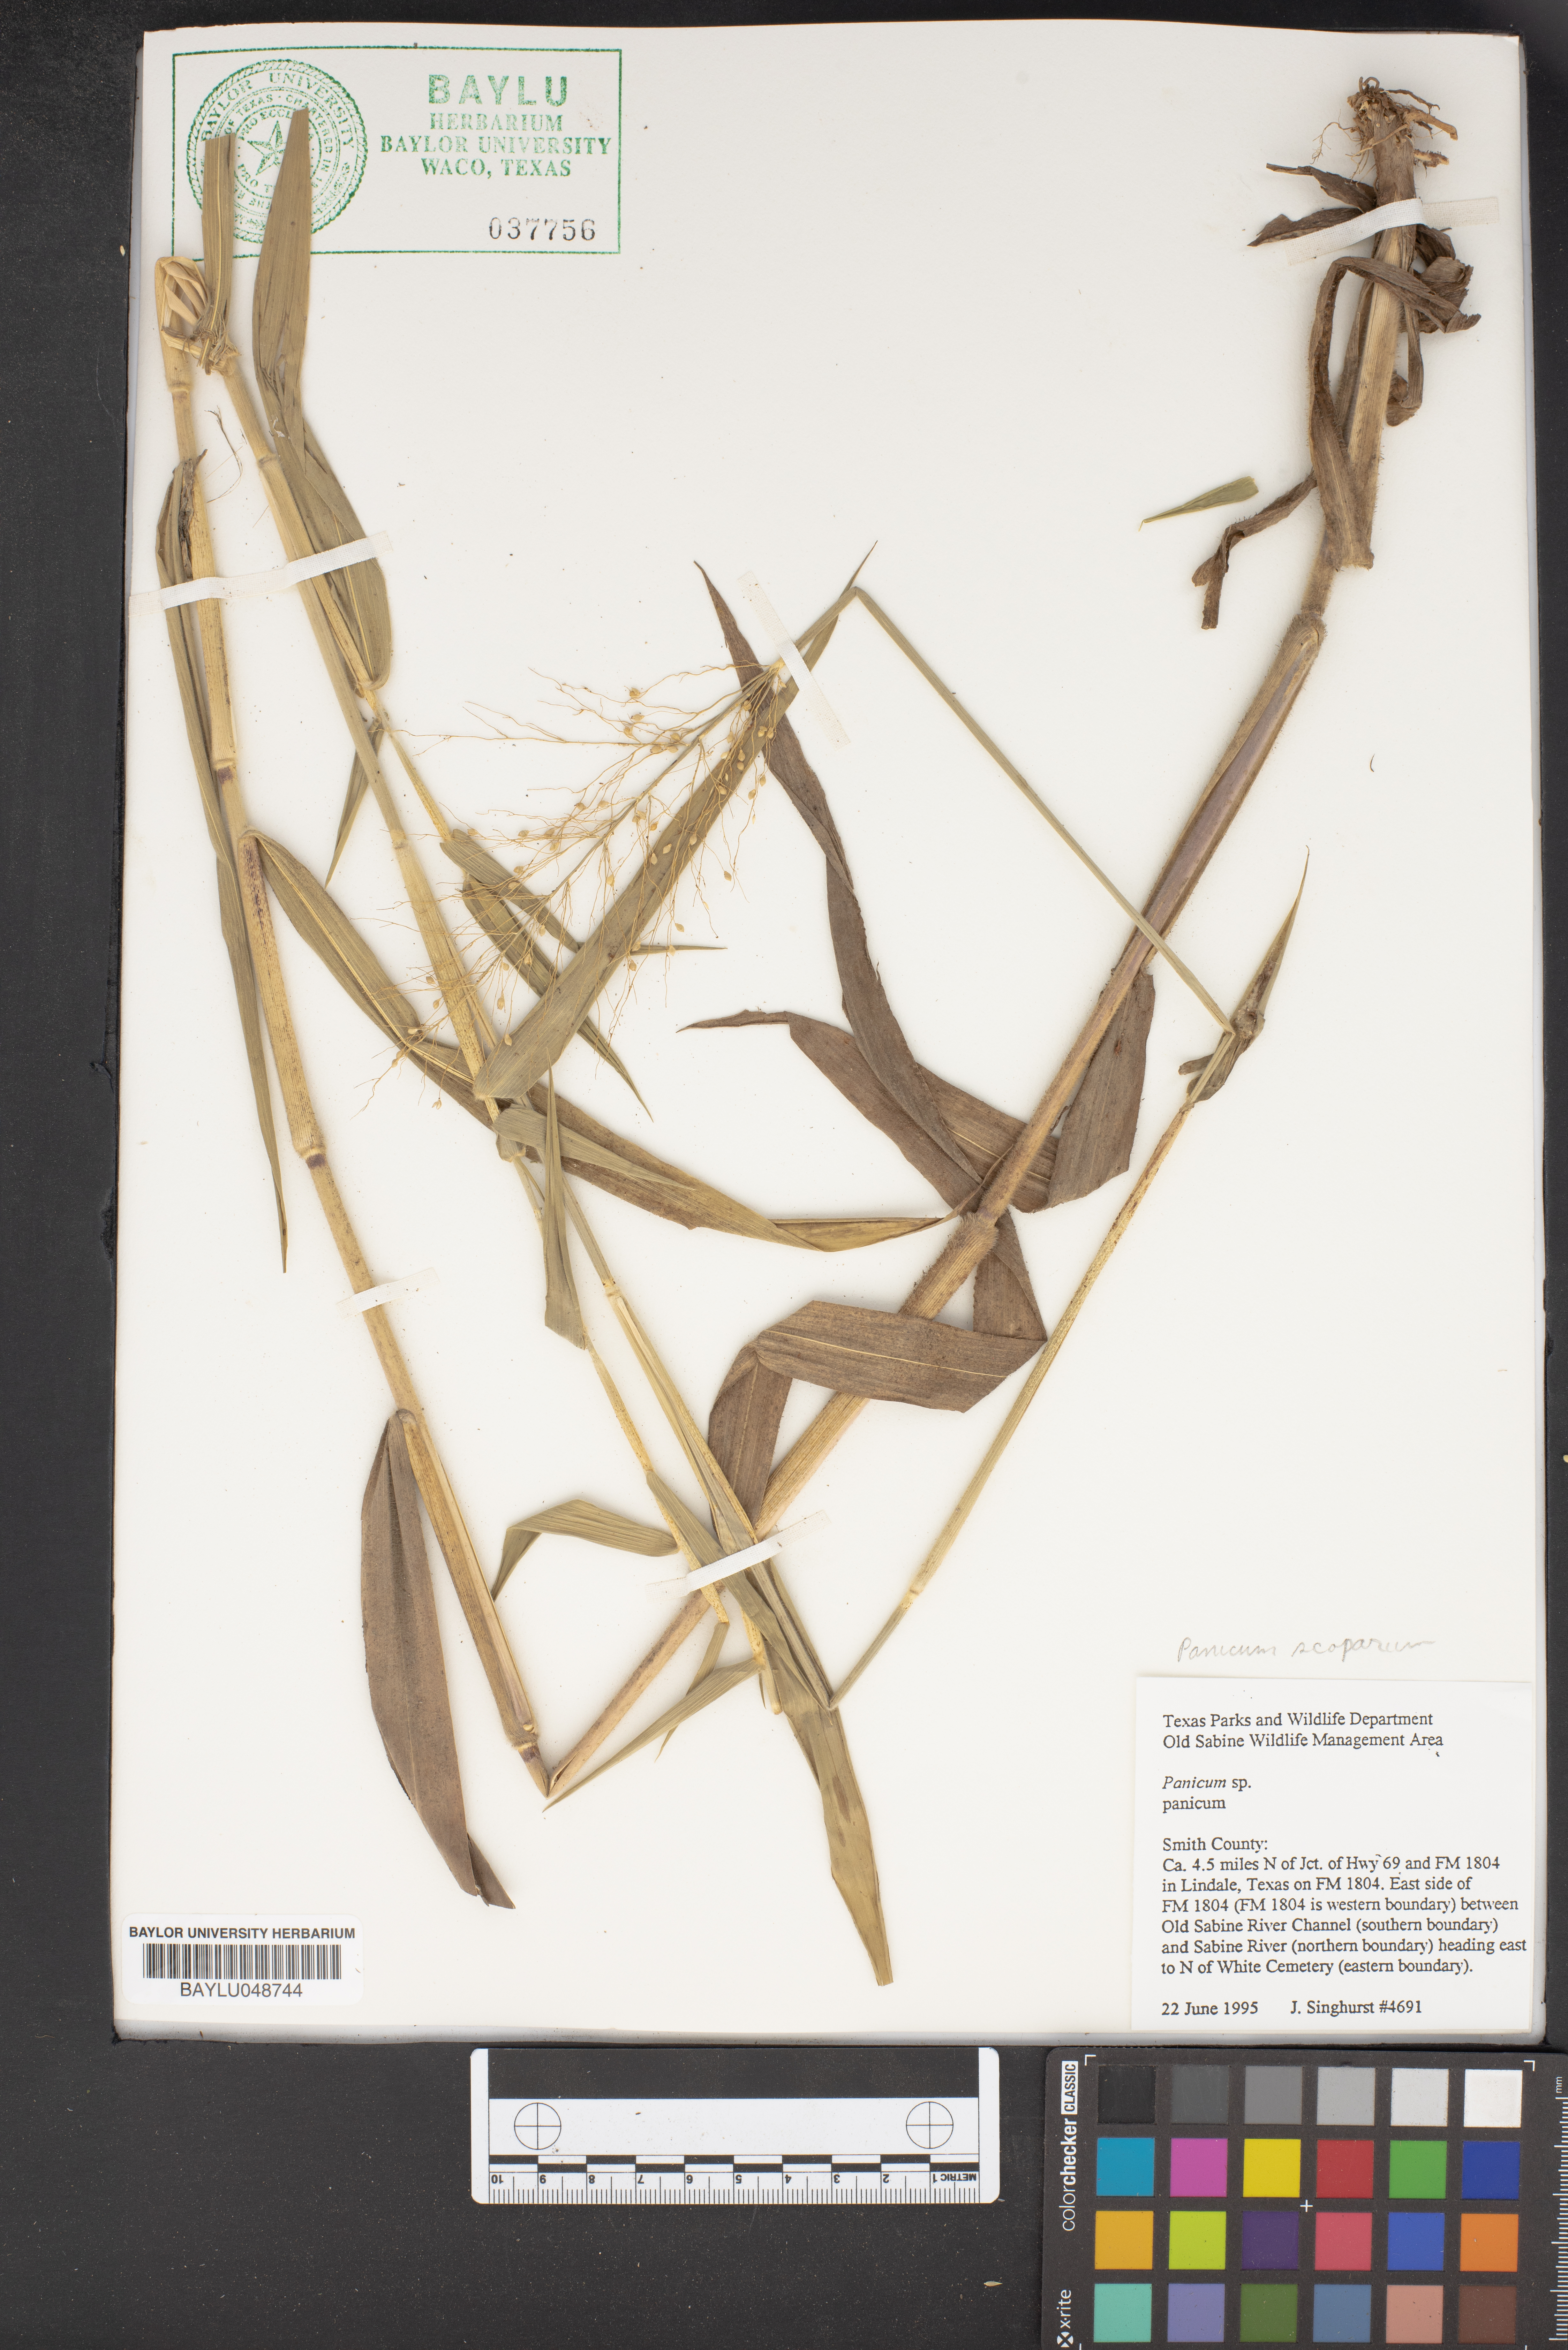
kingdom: Plantae
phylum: Tracheophyta
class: Liliopsida
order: Poales
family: Poaceae
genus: Panicum
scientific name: Panicum
